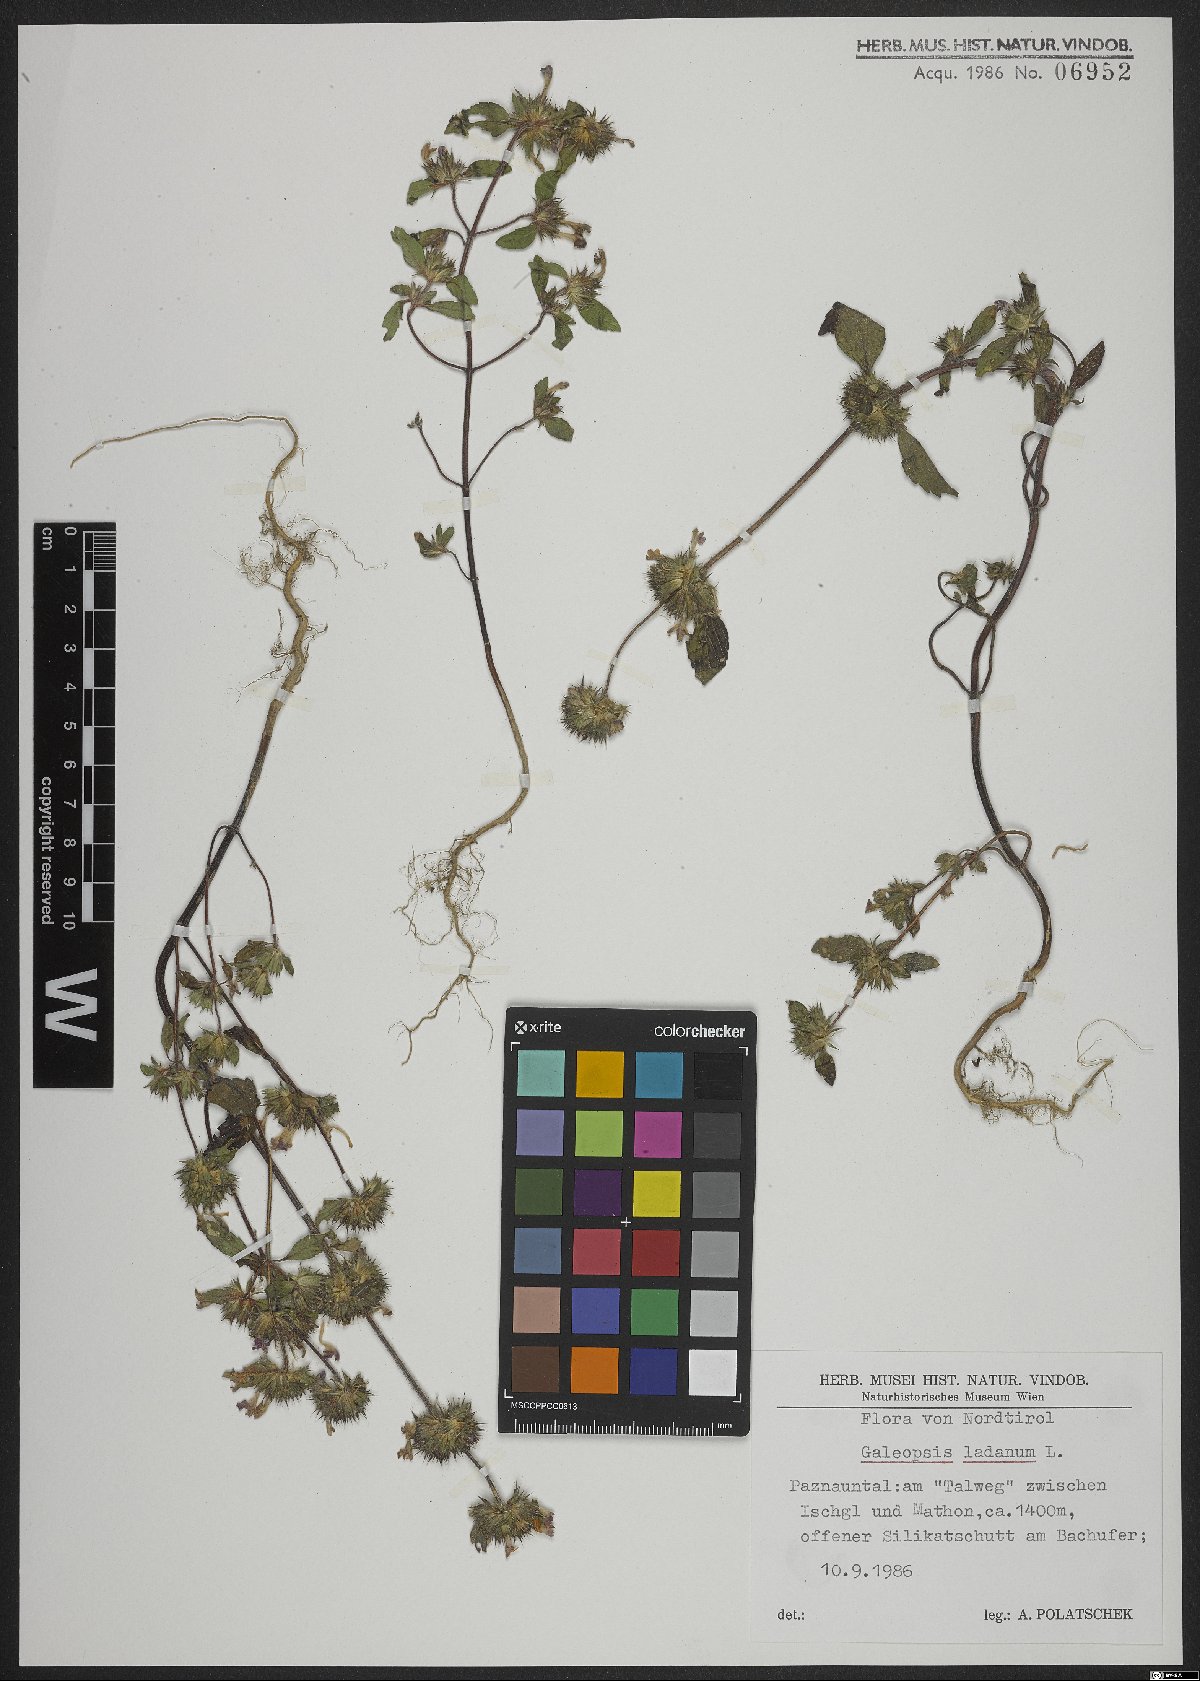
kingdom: Plantae
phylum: Tracheophyta
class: Magnoliopsida
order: Lamiales
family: Lamiaceae
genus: Galeopsis
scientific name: Galeopsis ladanum
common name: Broad-leaved hemp-nettle
